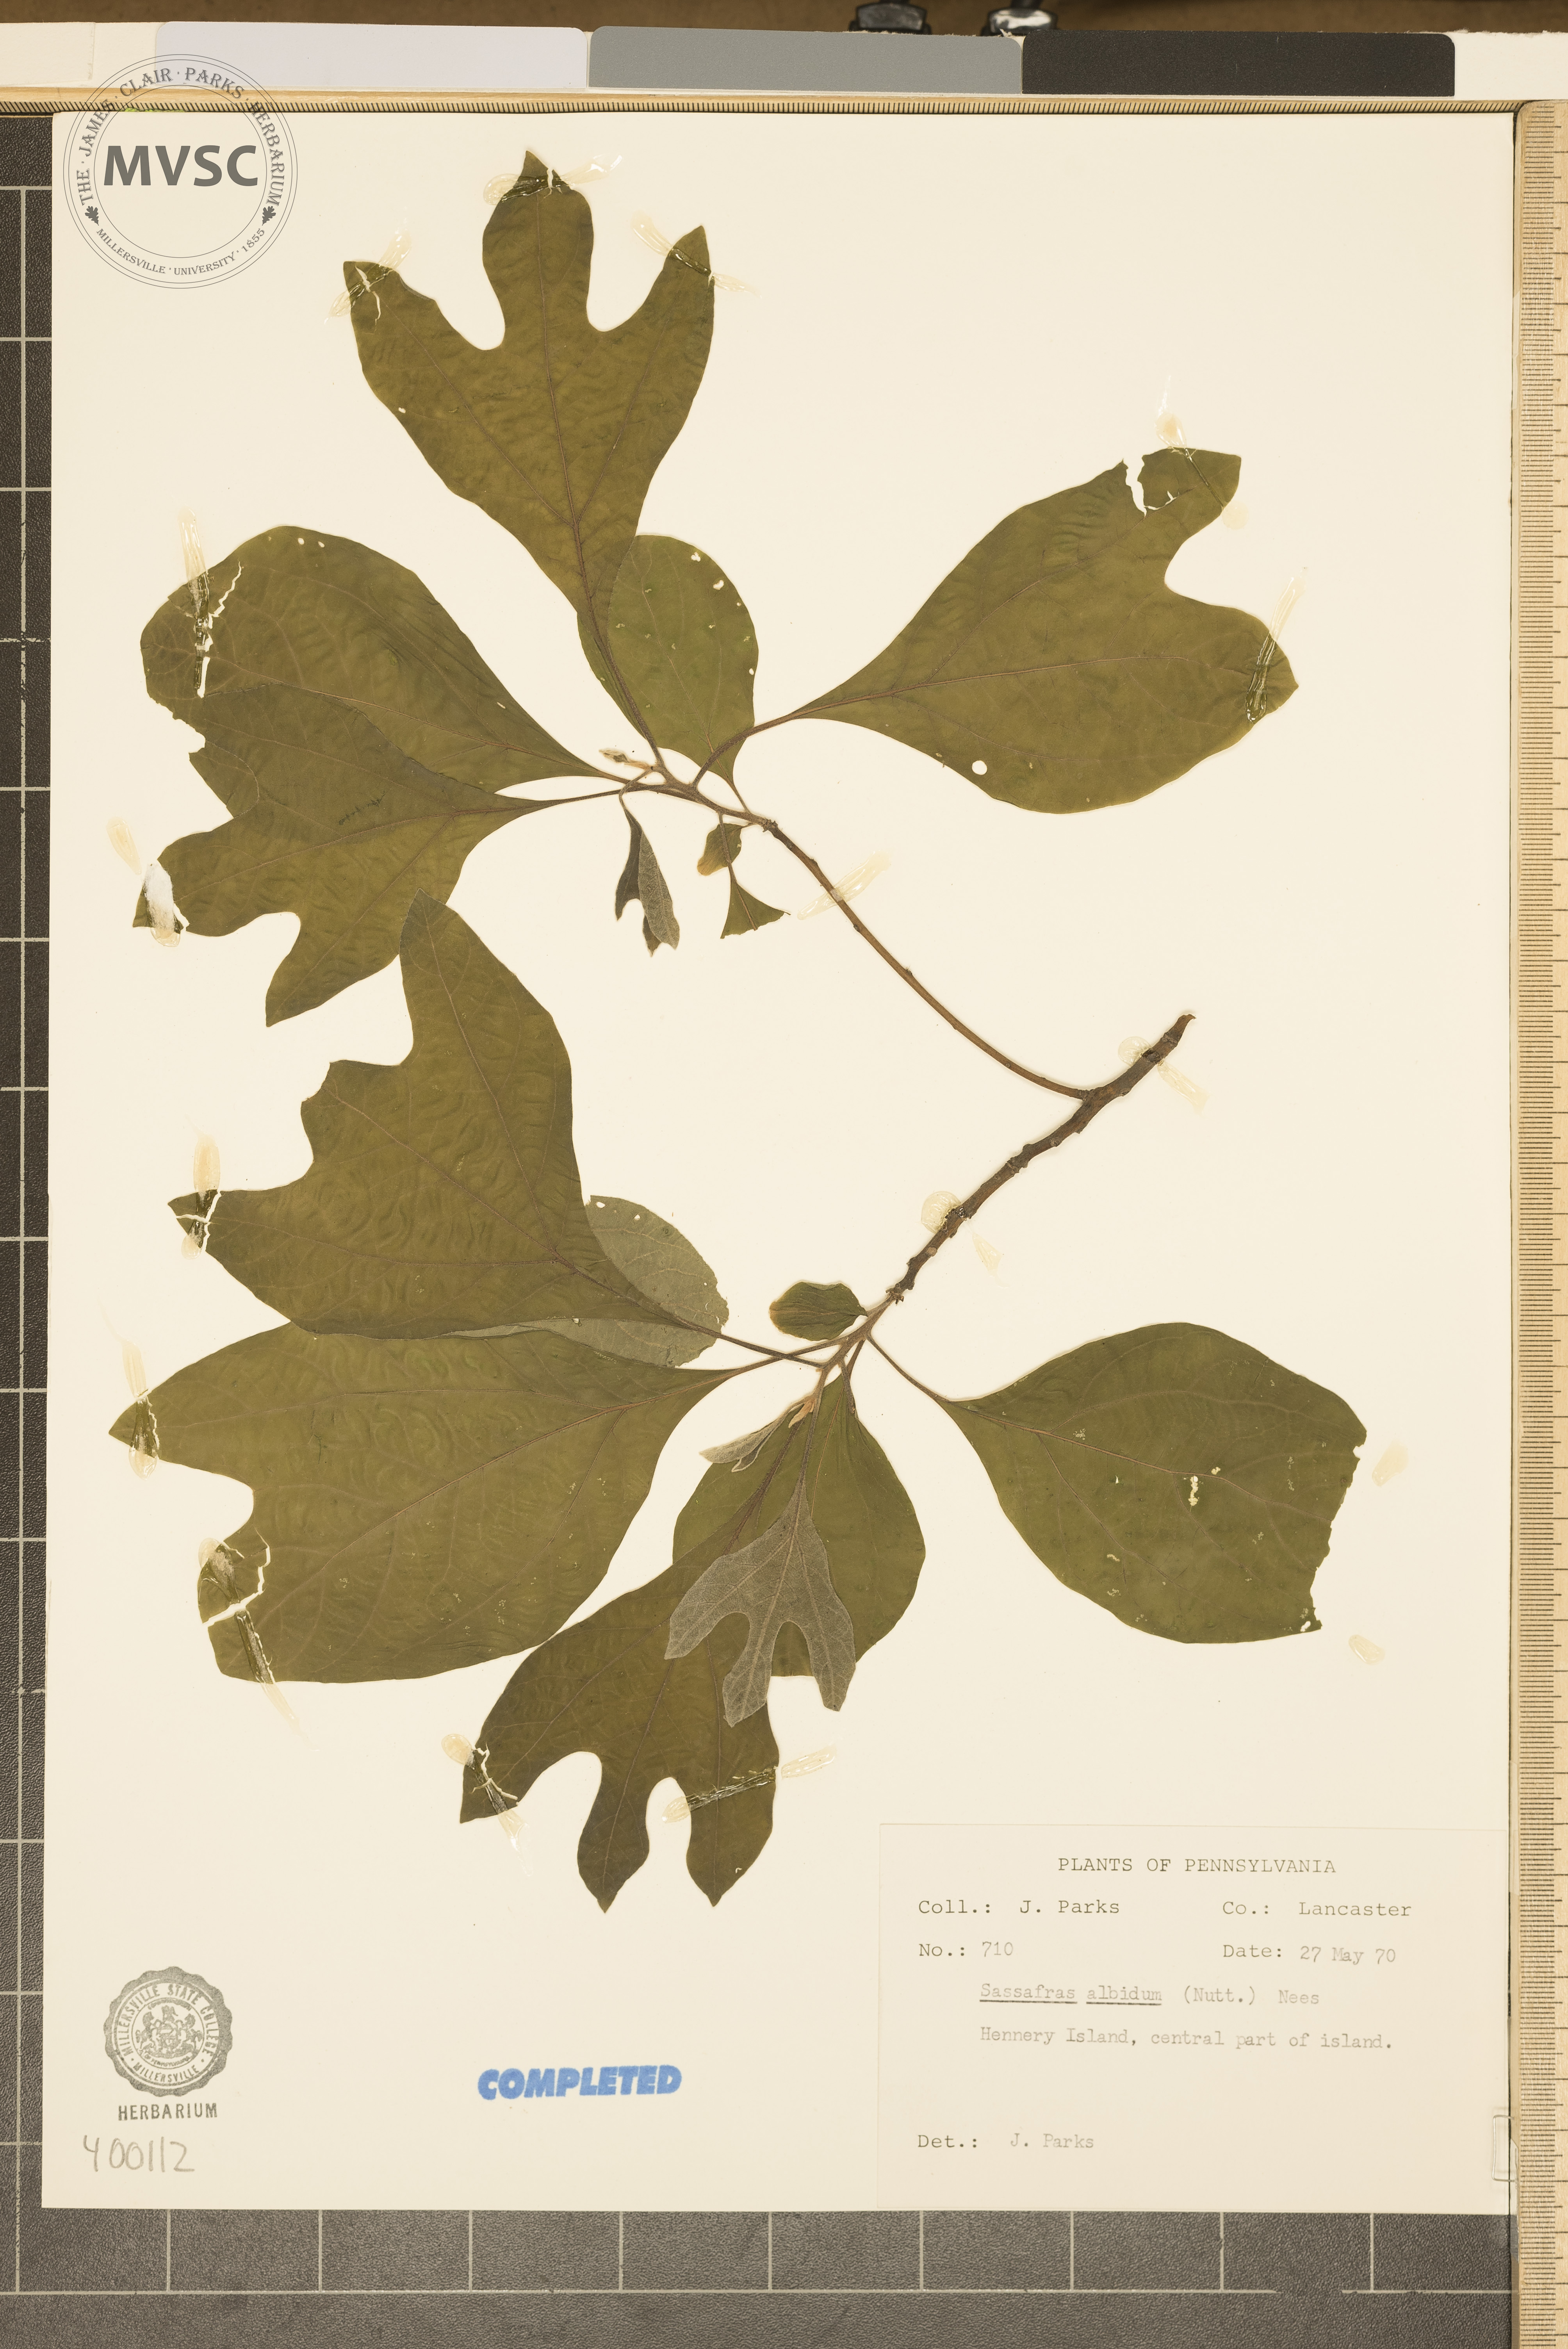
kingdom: Plantae
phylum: Tracheophyta
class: Magnoliopsida
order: Laurales
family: Lauraceae
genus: Sassafras
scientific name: Sassafras albidum
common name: sassafras
